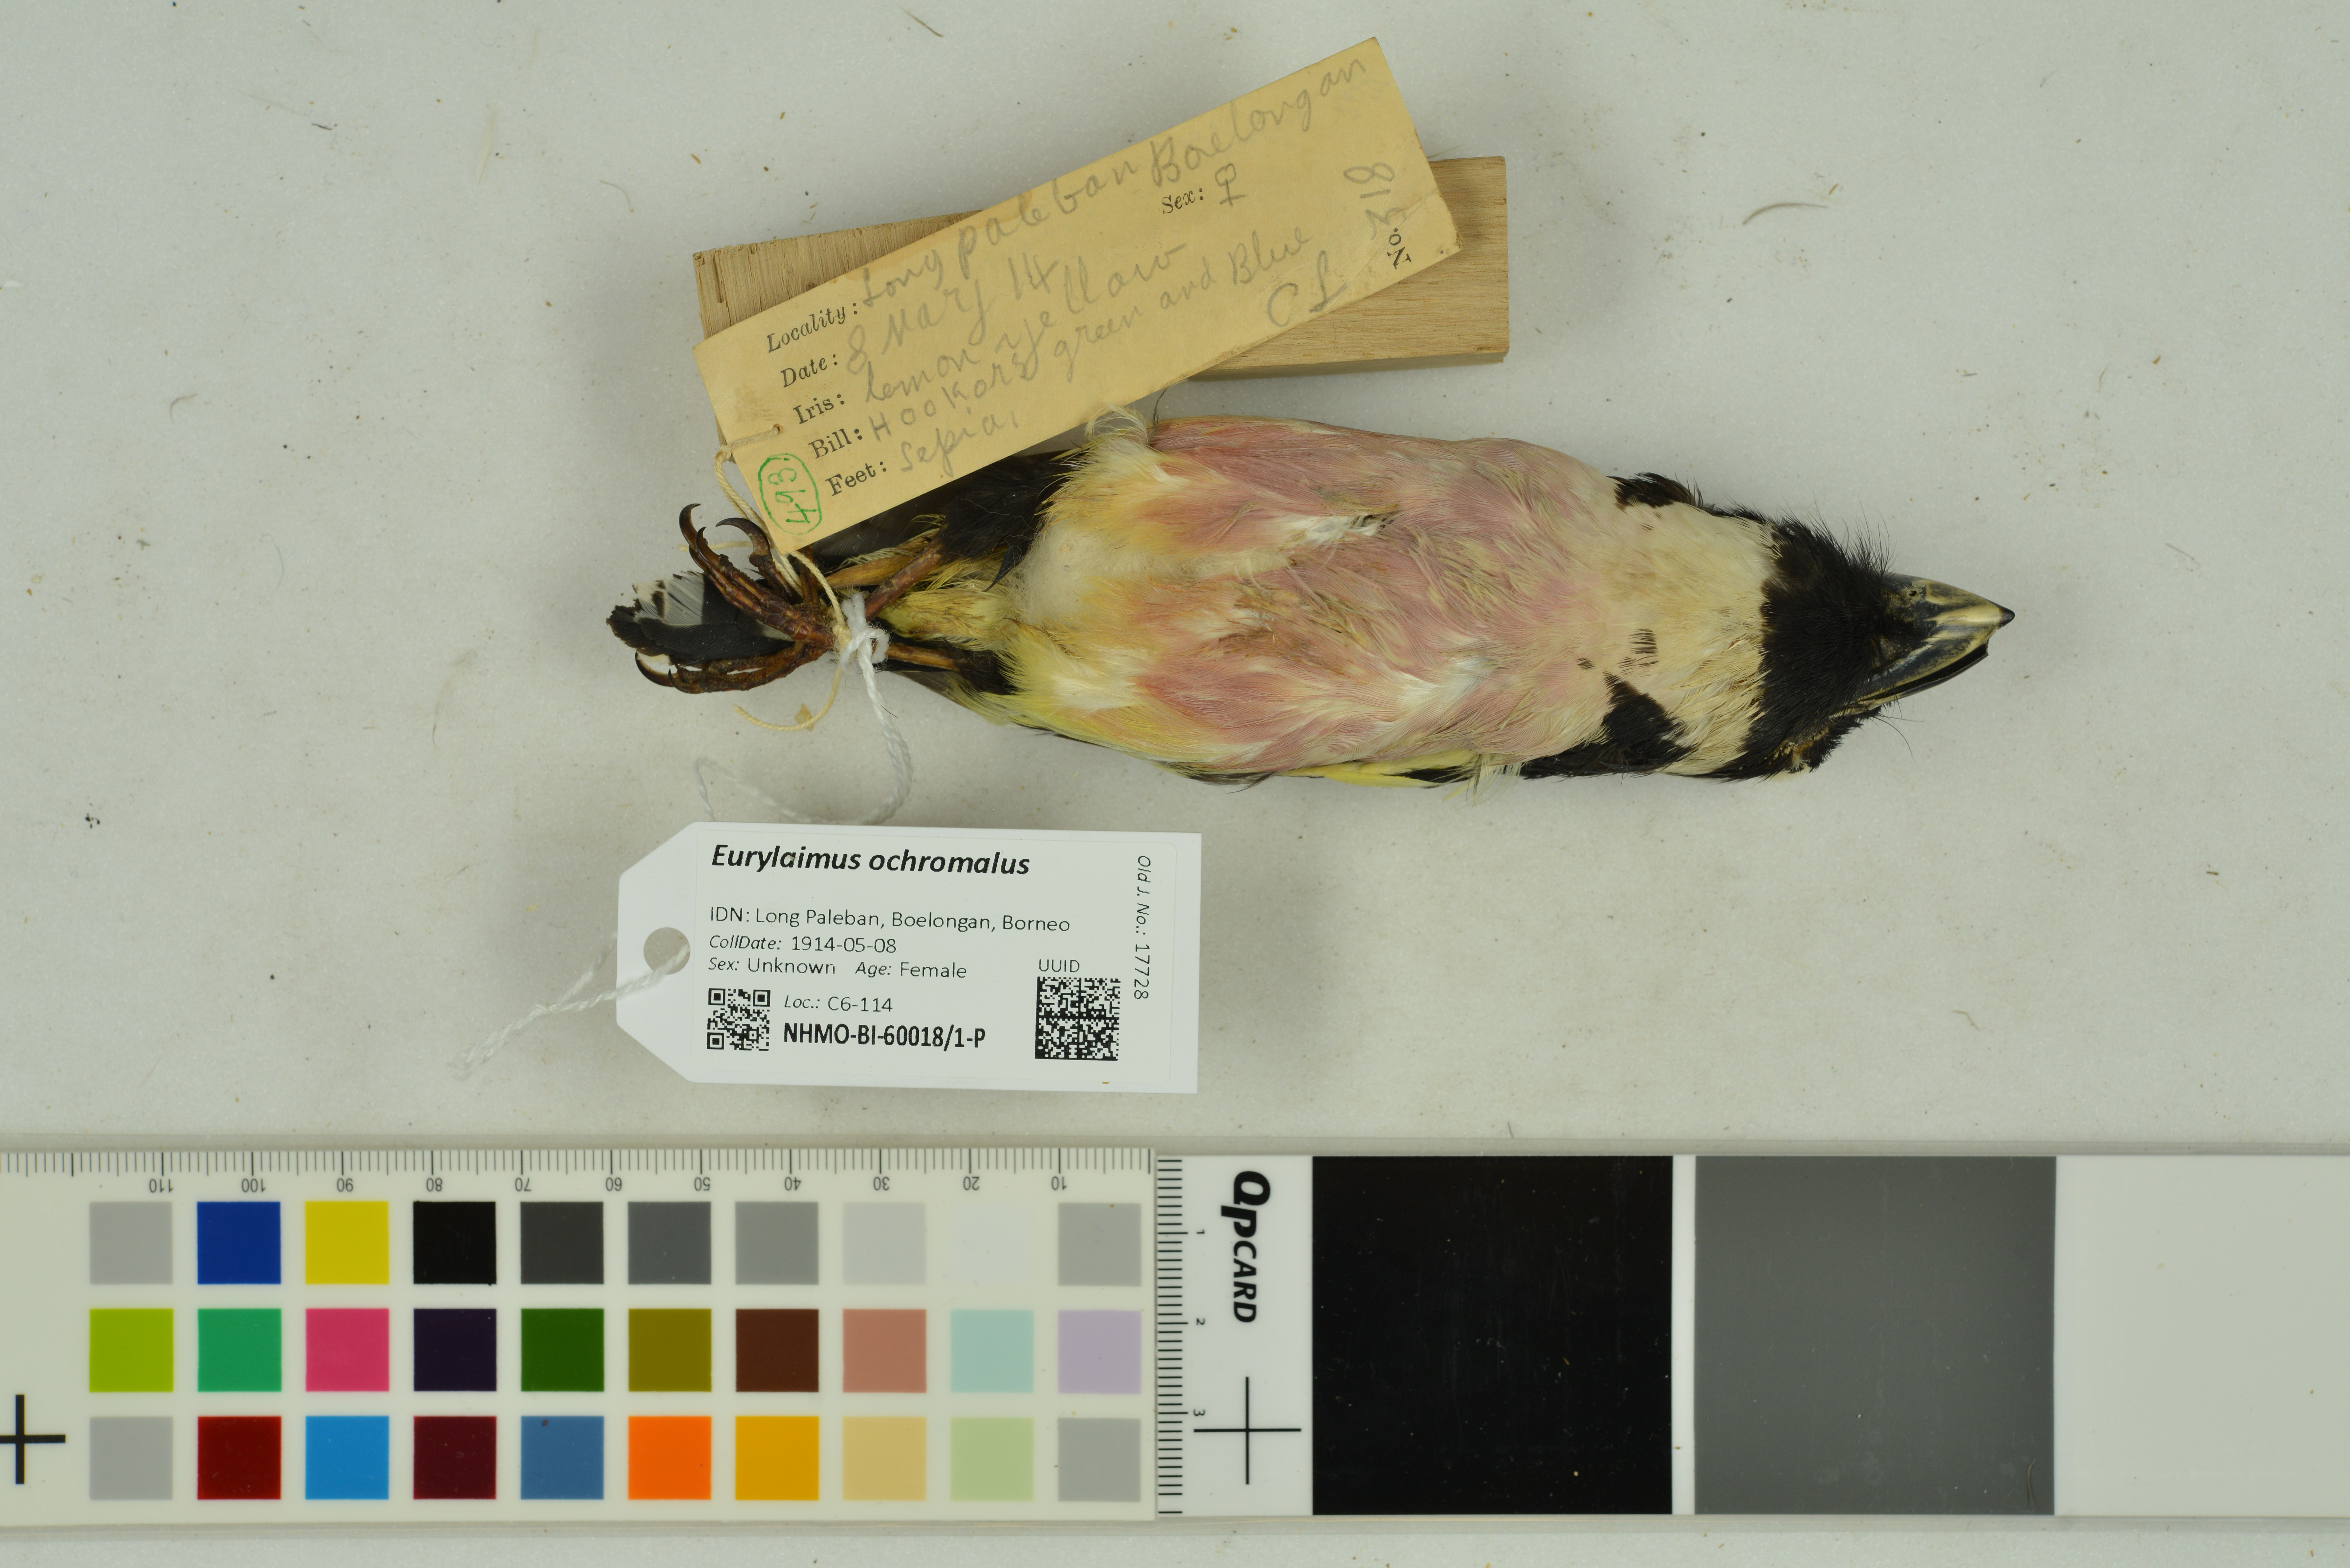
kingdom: Animalia
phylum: Chordata
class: Aves
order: Passeriformes
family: Eurylaimidae
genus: Eurylaimus
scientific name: Eurylaimus ochromalus
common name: Black-and-yellow broadbill
